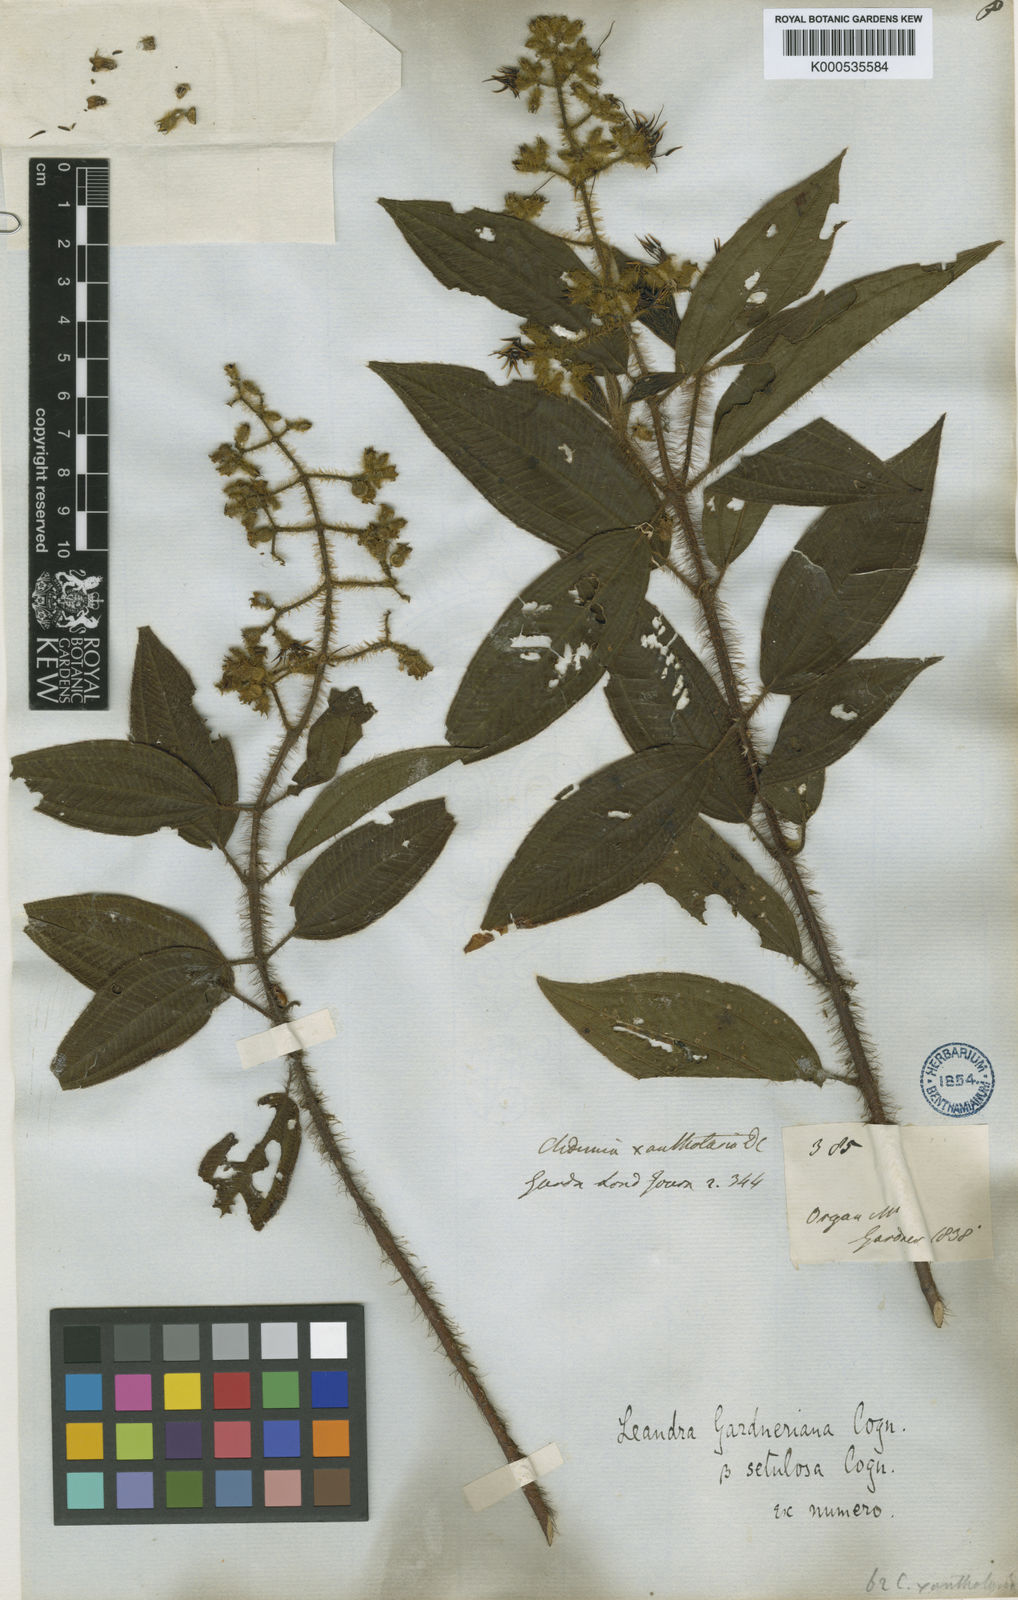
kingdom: Plantae
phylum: Tracheophyta
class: Magnoliopsida
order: Myrtales
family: Melastomataceae
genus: Miconia
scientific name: Miconia xantholasia
